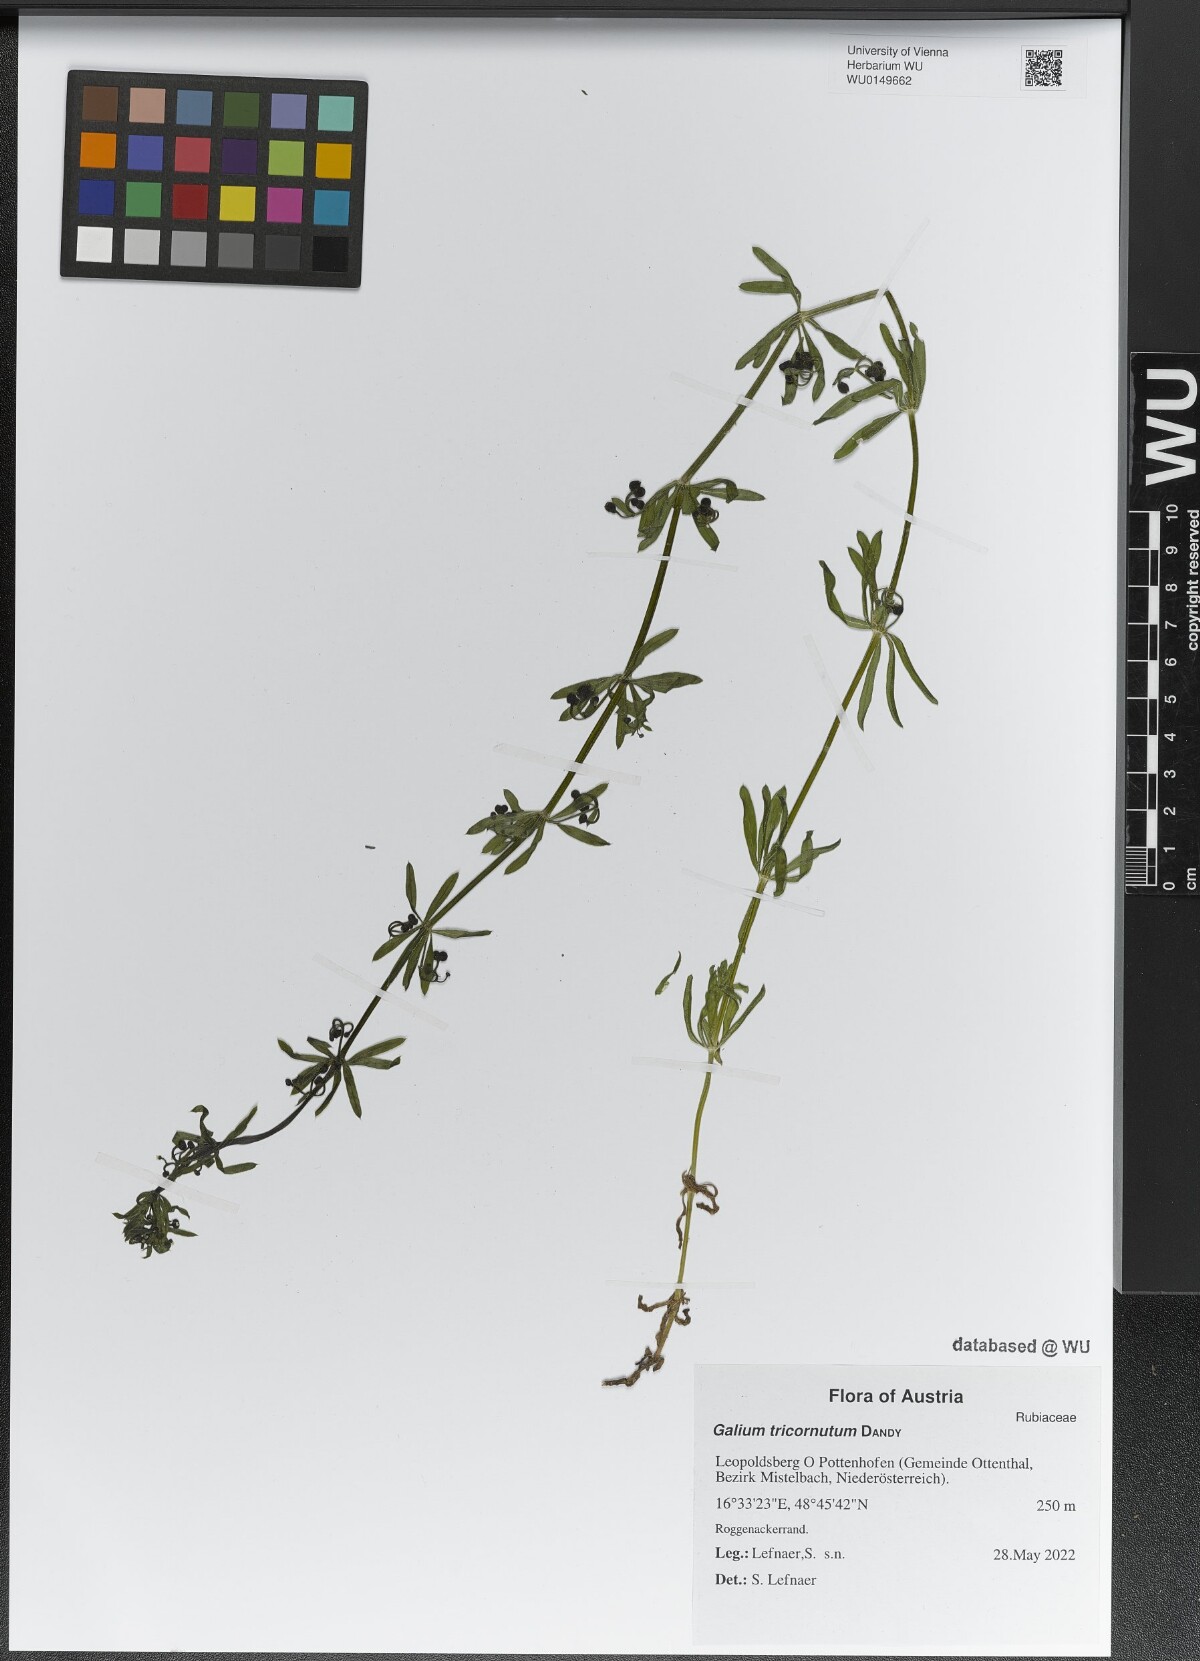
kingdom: Plantae
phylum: Tracheophyta
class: Magnoliopsida
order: Gentianales
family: Rubiaceae
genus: Galium
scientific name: Galium tricornutum
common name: Corn cleavers
